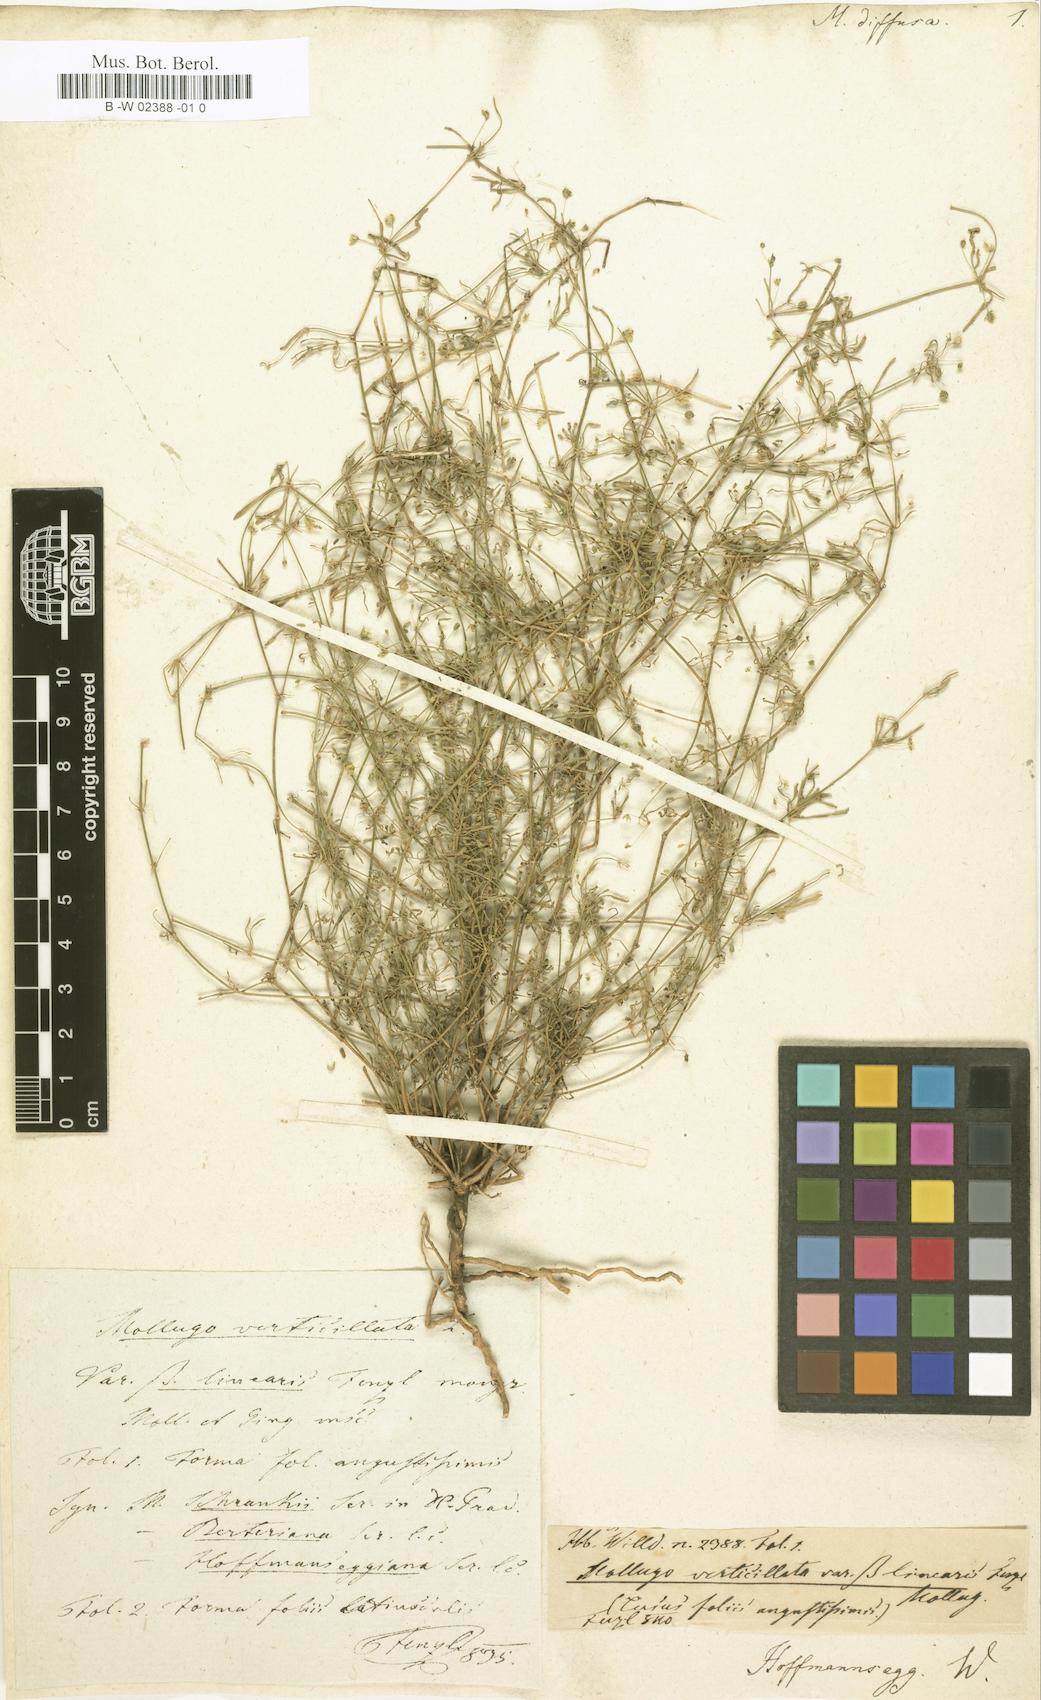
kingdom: Plantae
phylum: Tracheophyta
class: Magnoliopsida
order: Caryophyllales
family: Molluginaceae
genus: Mollugo
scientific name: Mollugo verticillata
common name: Green carpetweed
